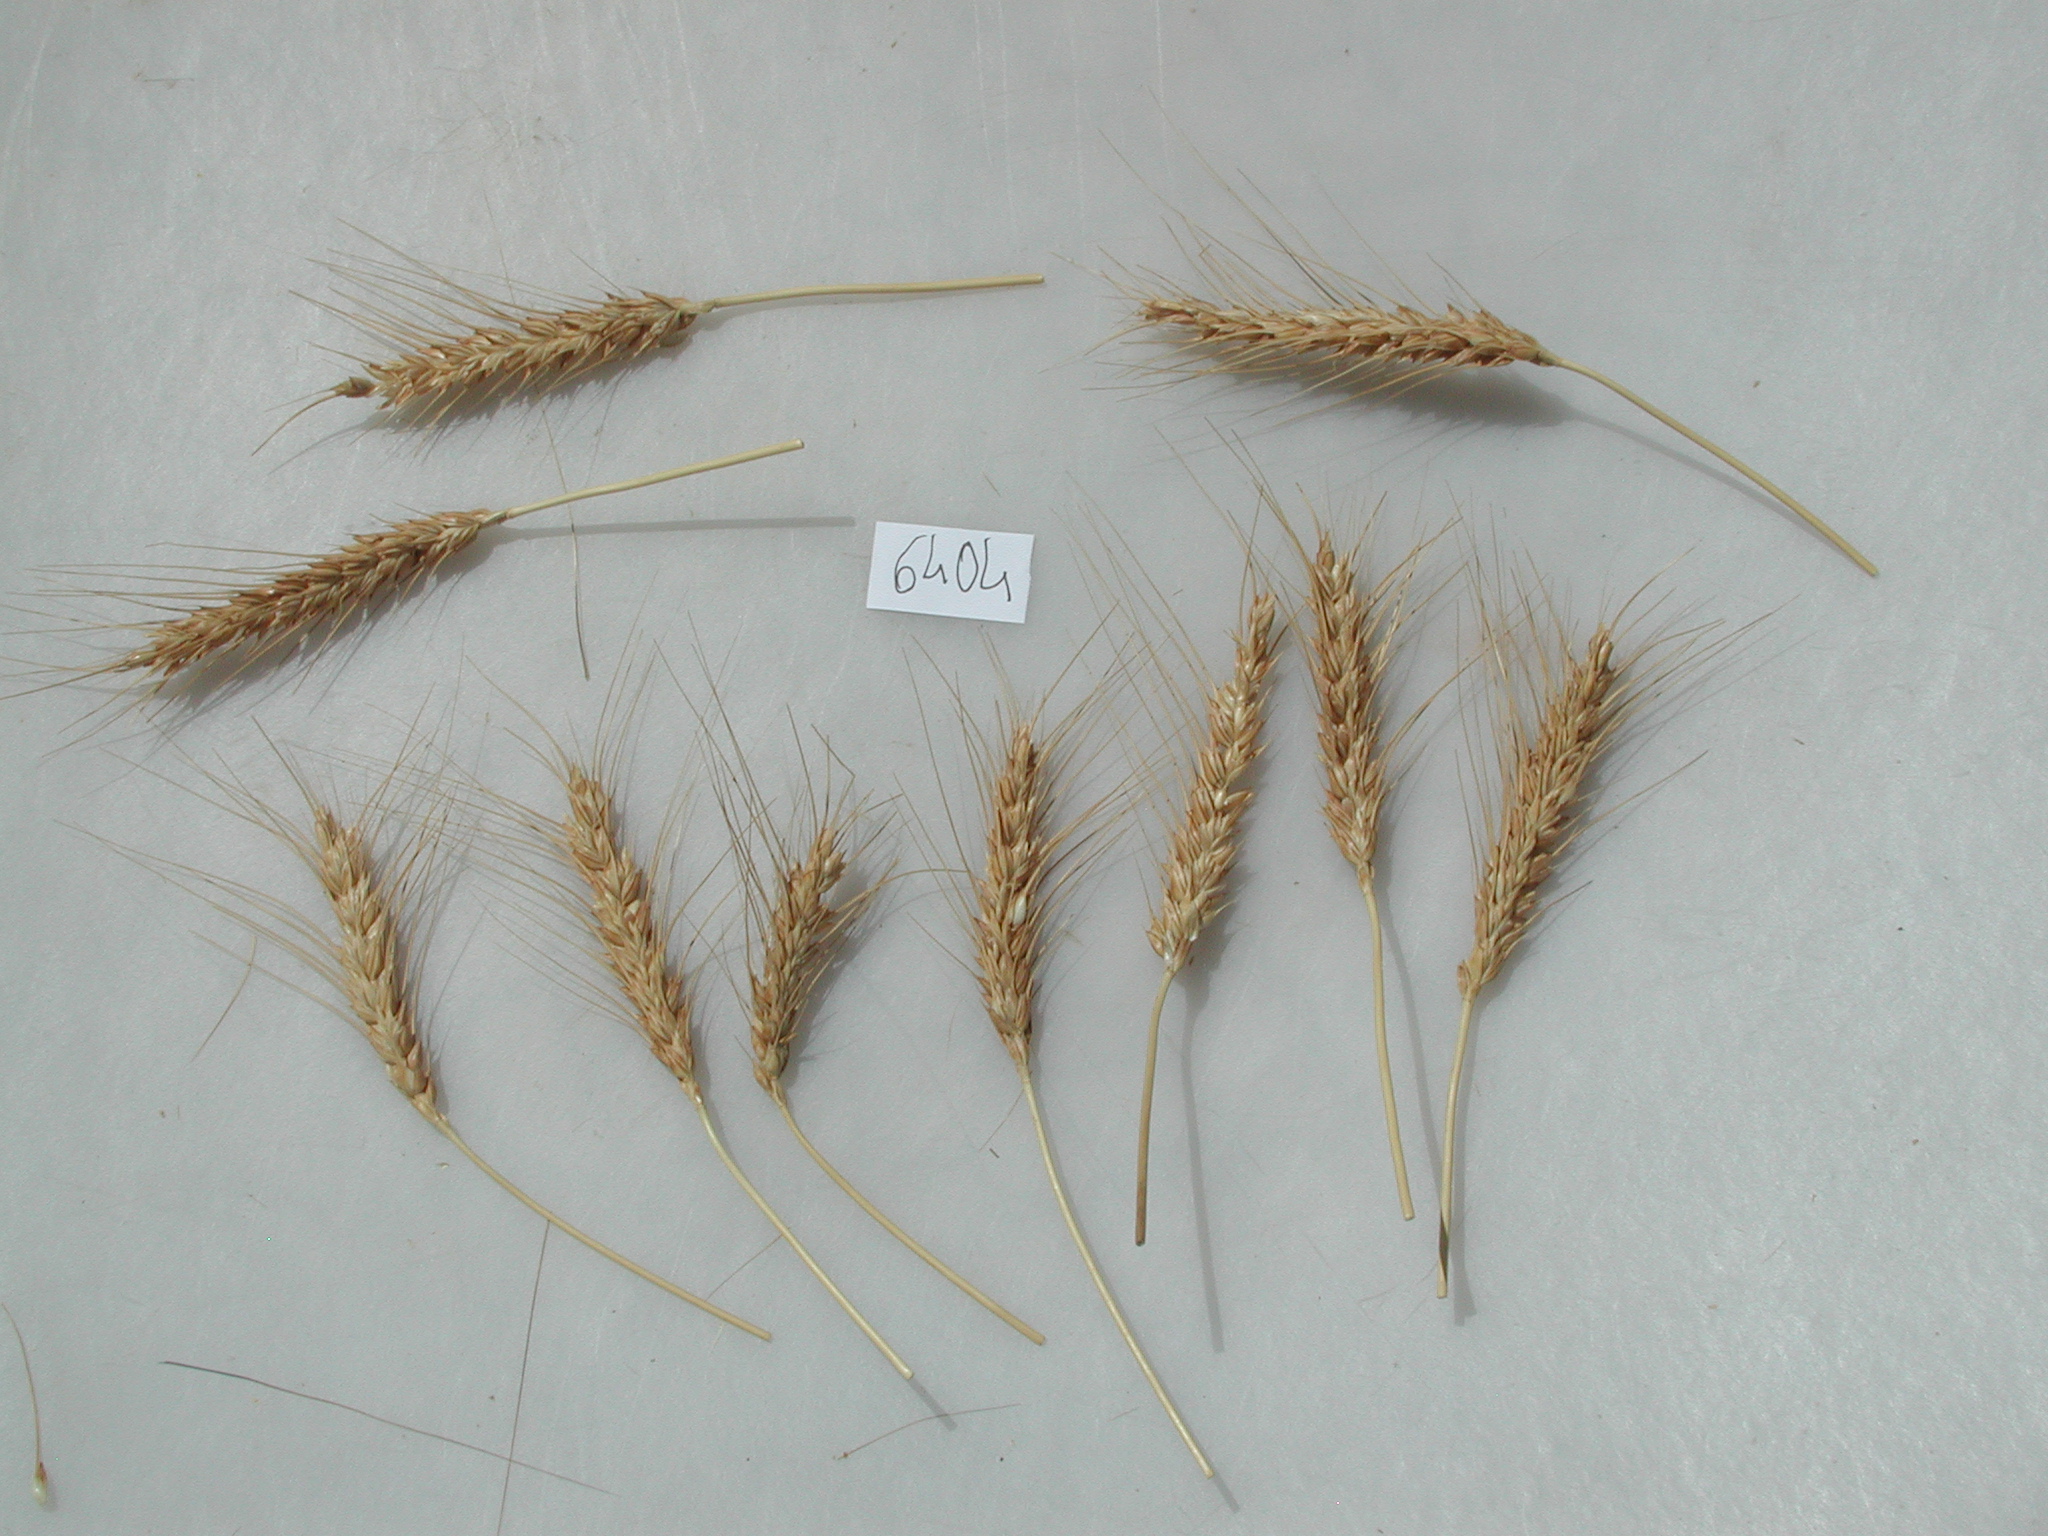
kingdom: Plantae
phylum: Tracheophyta
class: Liliopsida
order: Poales
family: Poaceae
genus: Triticum
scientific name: Triticum aestivum
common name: Wheat
